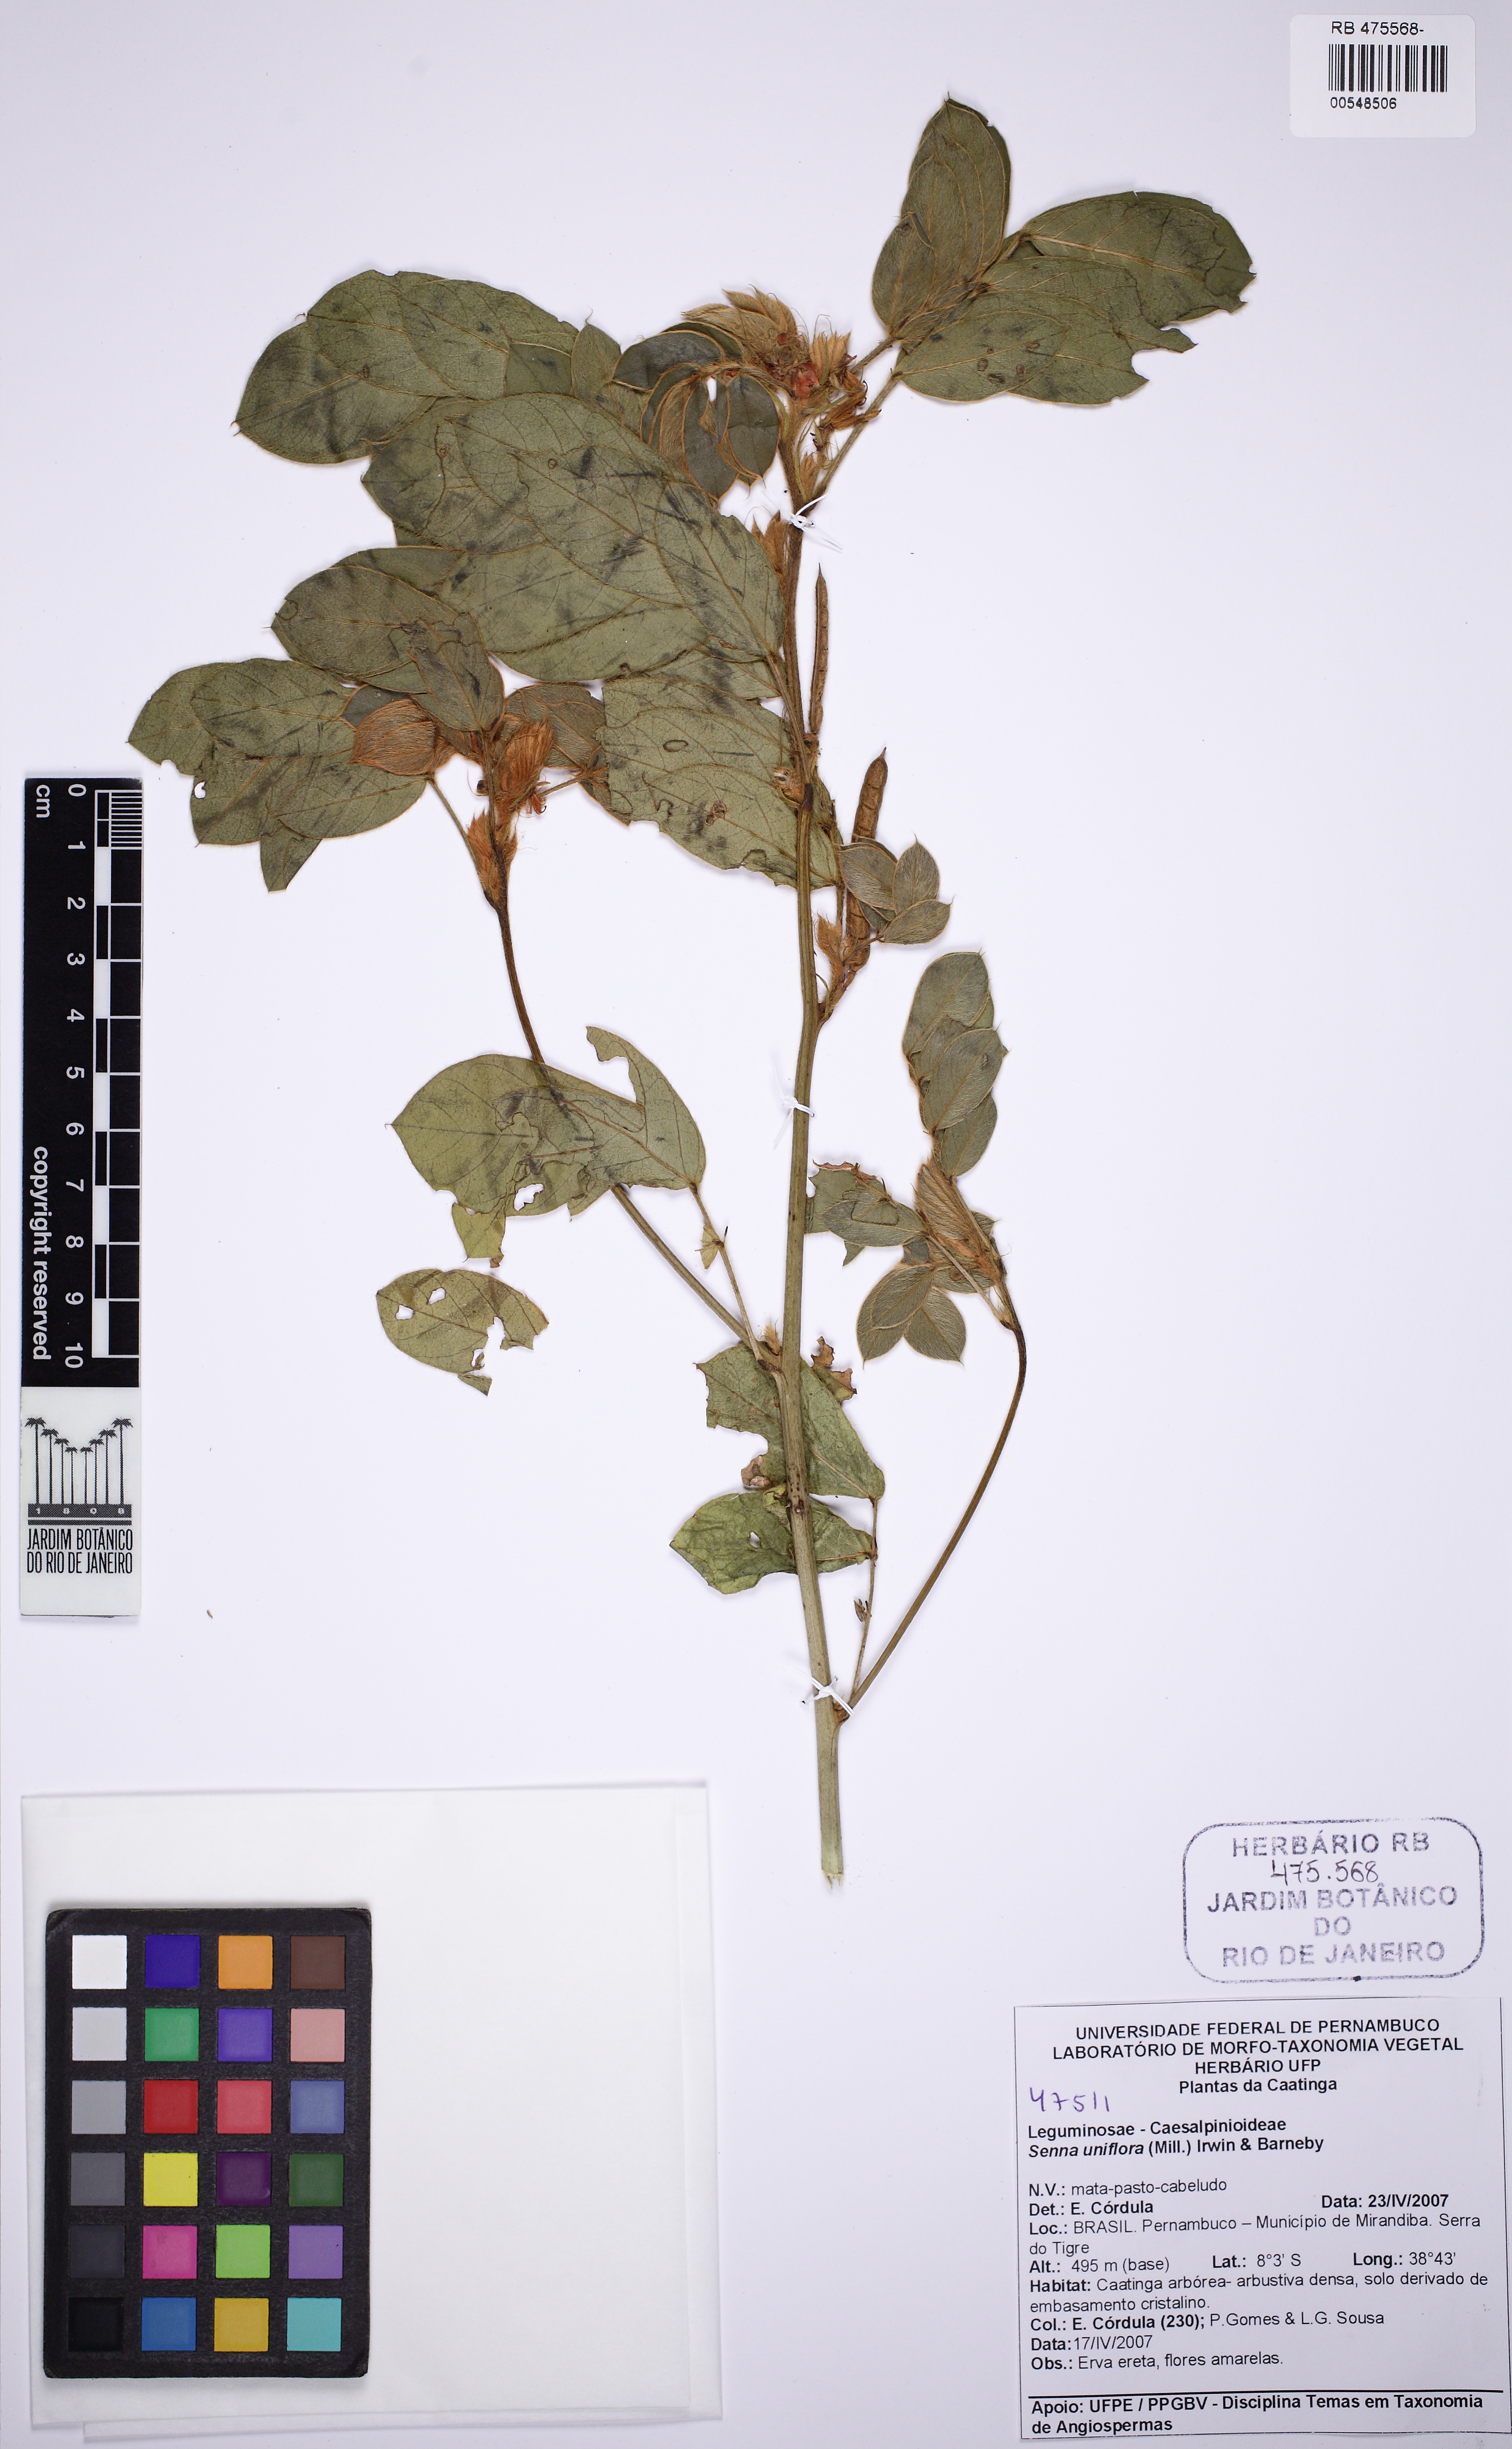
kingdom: Plantae
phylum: Tracheophyta
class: Magnoliopsida
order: Fabales
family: Fabaceae
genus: Senna
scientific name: Senna uniflora
